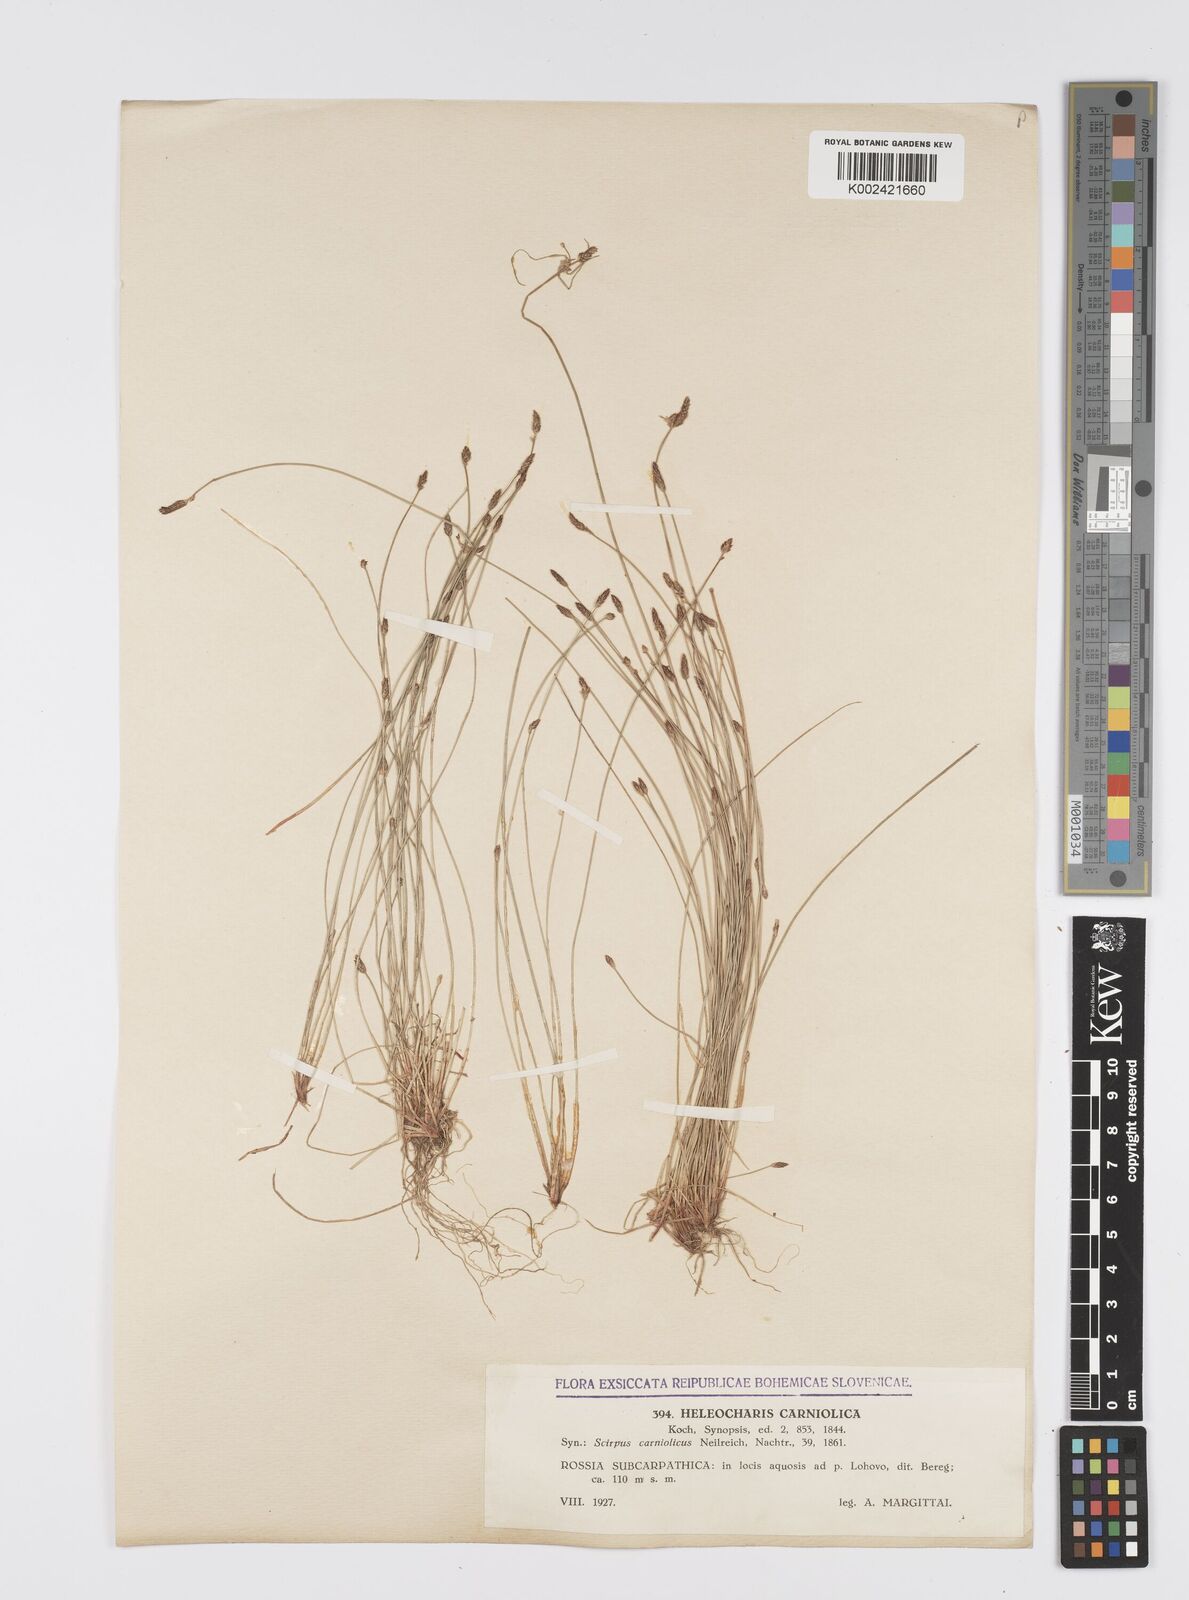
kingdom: Plantae
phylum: Tracheophyta
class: Liliopsida
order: Poales
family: Cyperaceae
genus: Eleocharis
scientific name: Eleocharis carniolica
